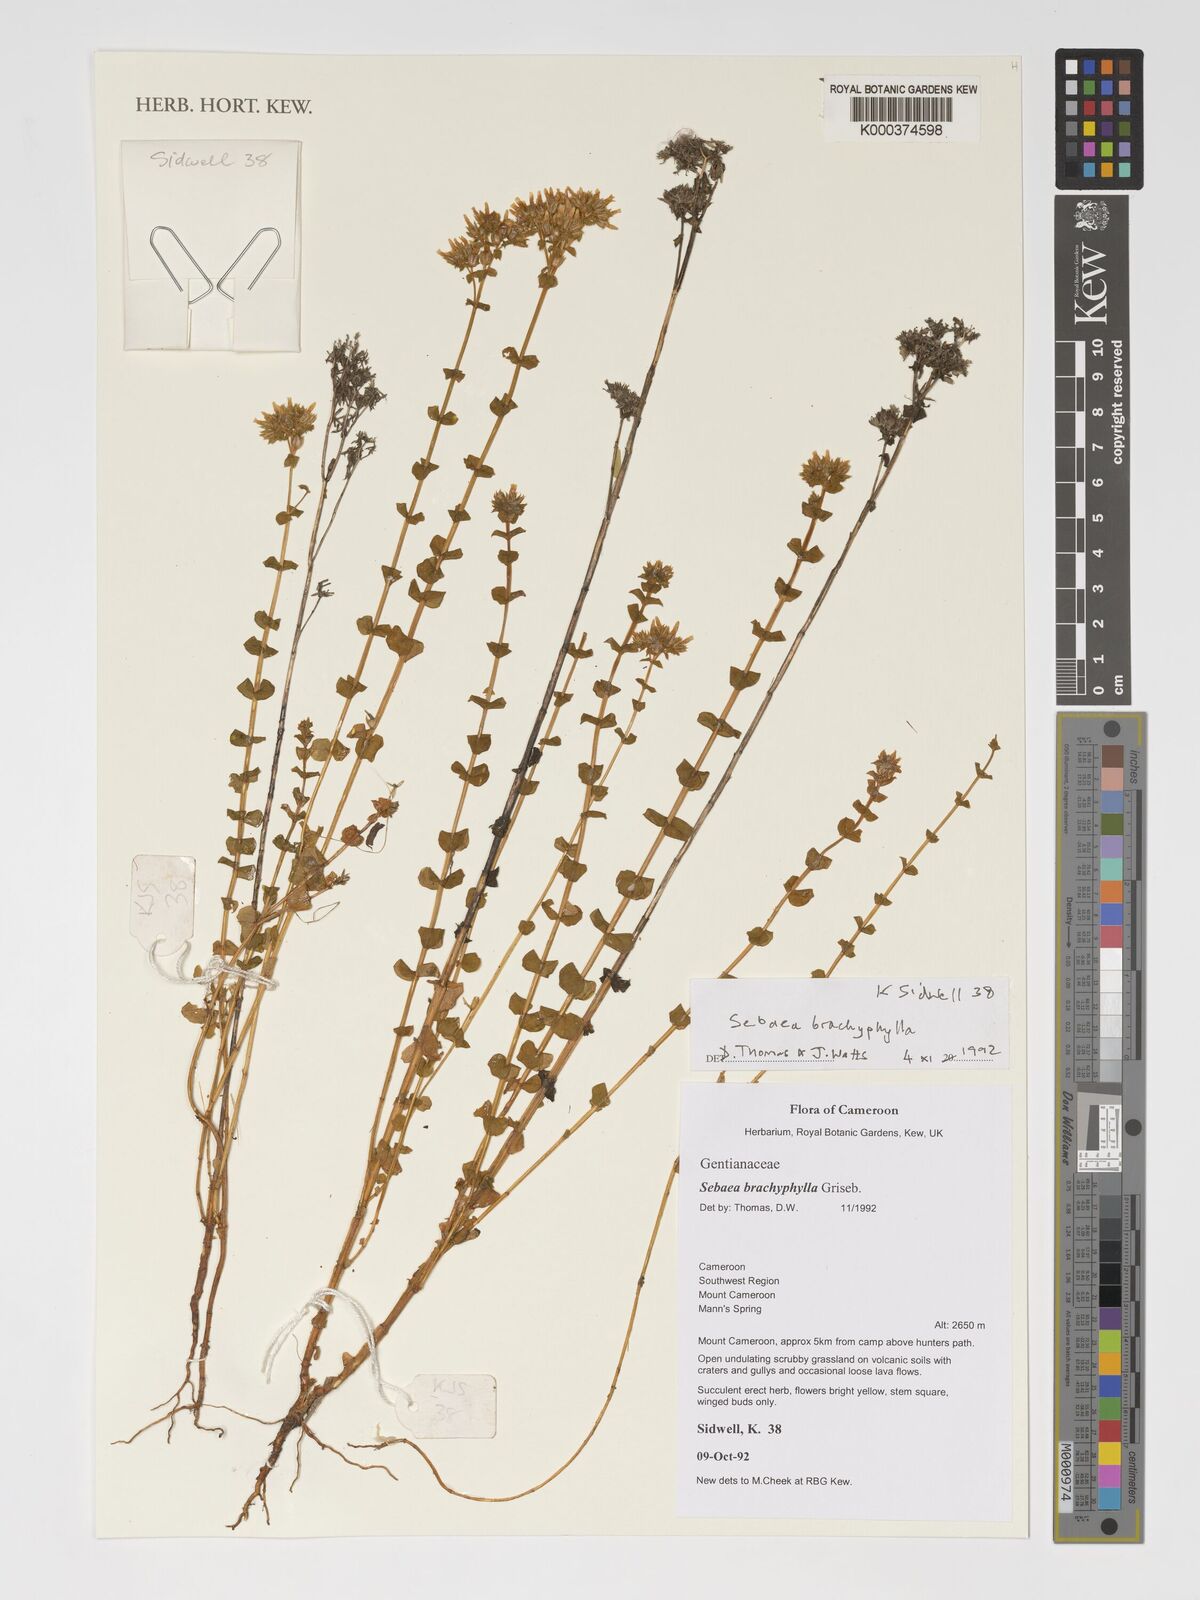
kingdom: Plantae
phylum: Tracheophyta
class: Magnoliopsida
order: Gentianales
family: Gentianaceae
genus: Sebaea
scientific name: Sebaea brachyphylla
